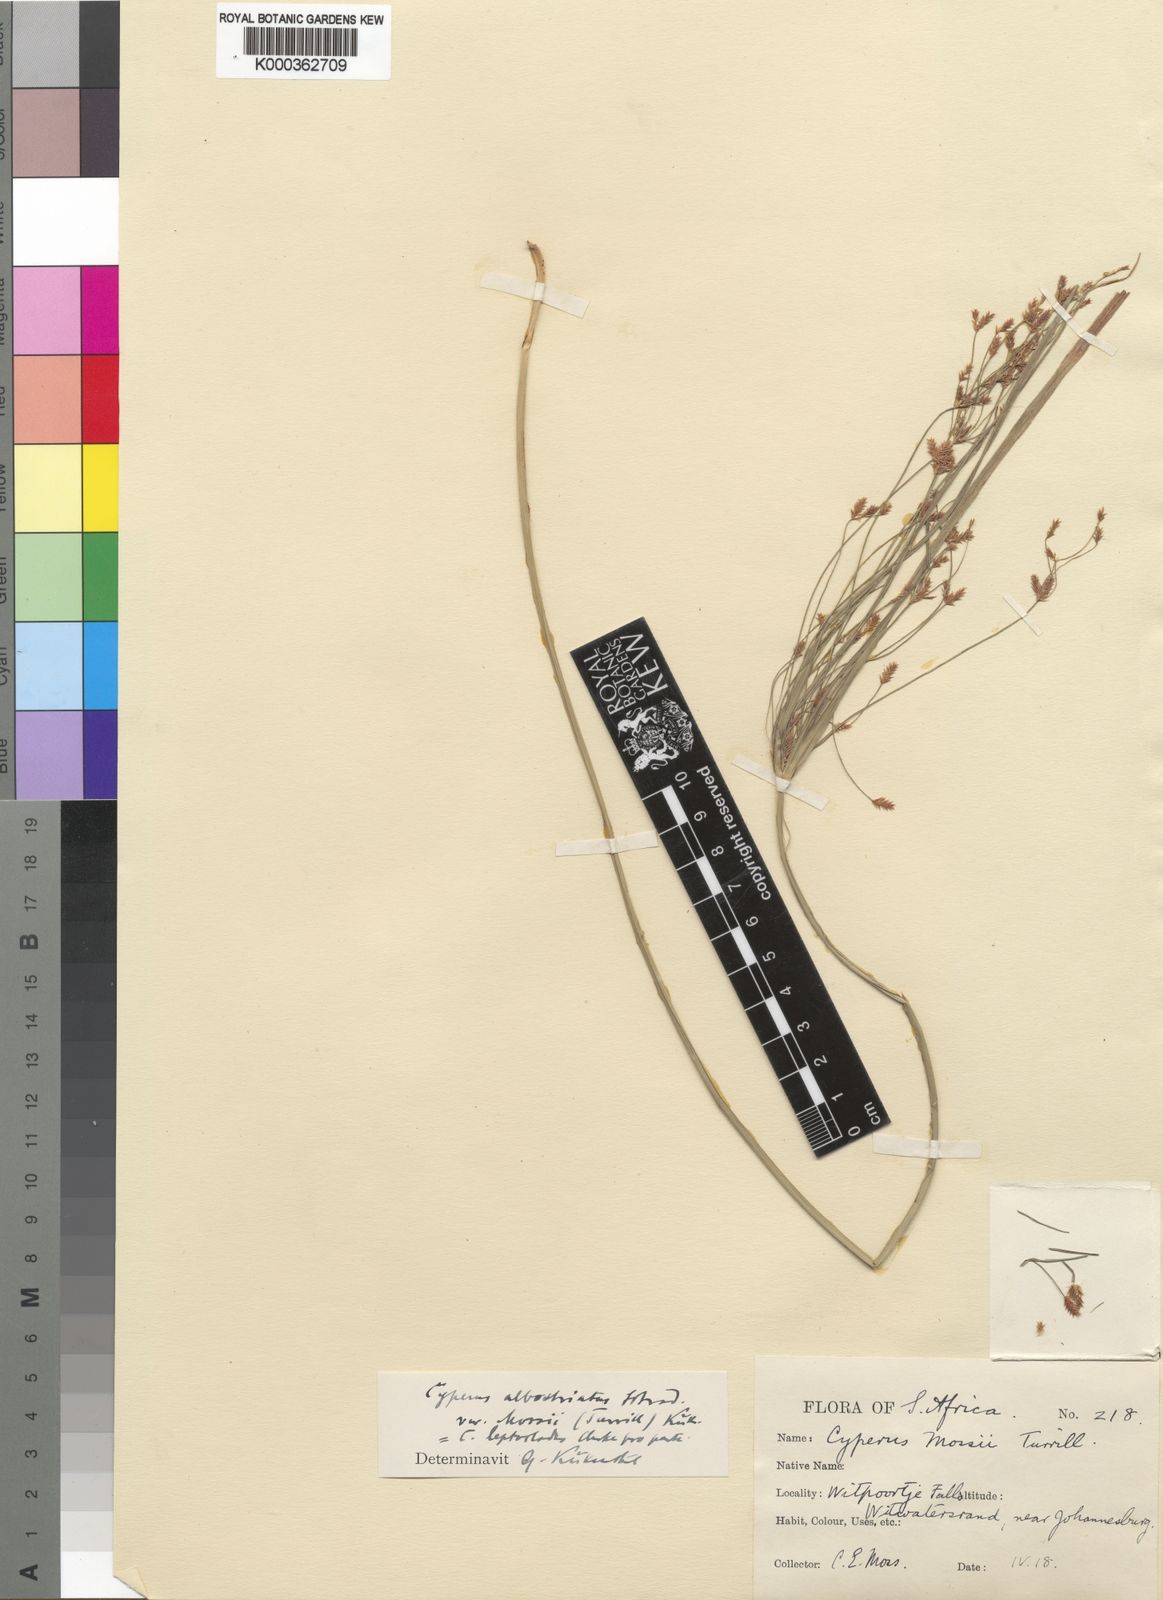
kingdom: Plantae
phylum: Tracheophyta
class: Liliopsida
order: Poales
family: Cyperaceae
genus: Cyperus
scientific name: Cyperus albostriatus
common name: Dwarf umbrella-grass
